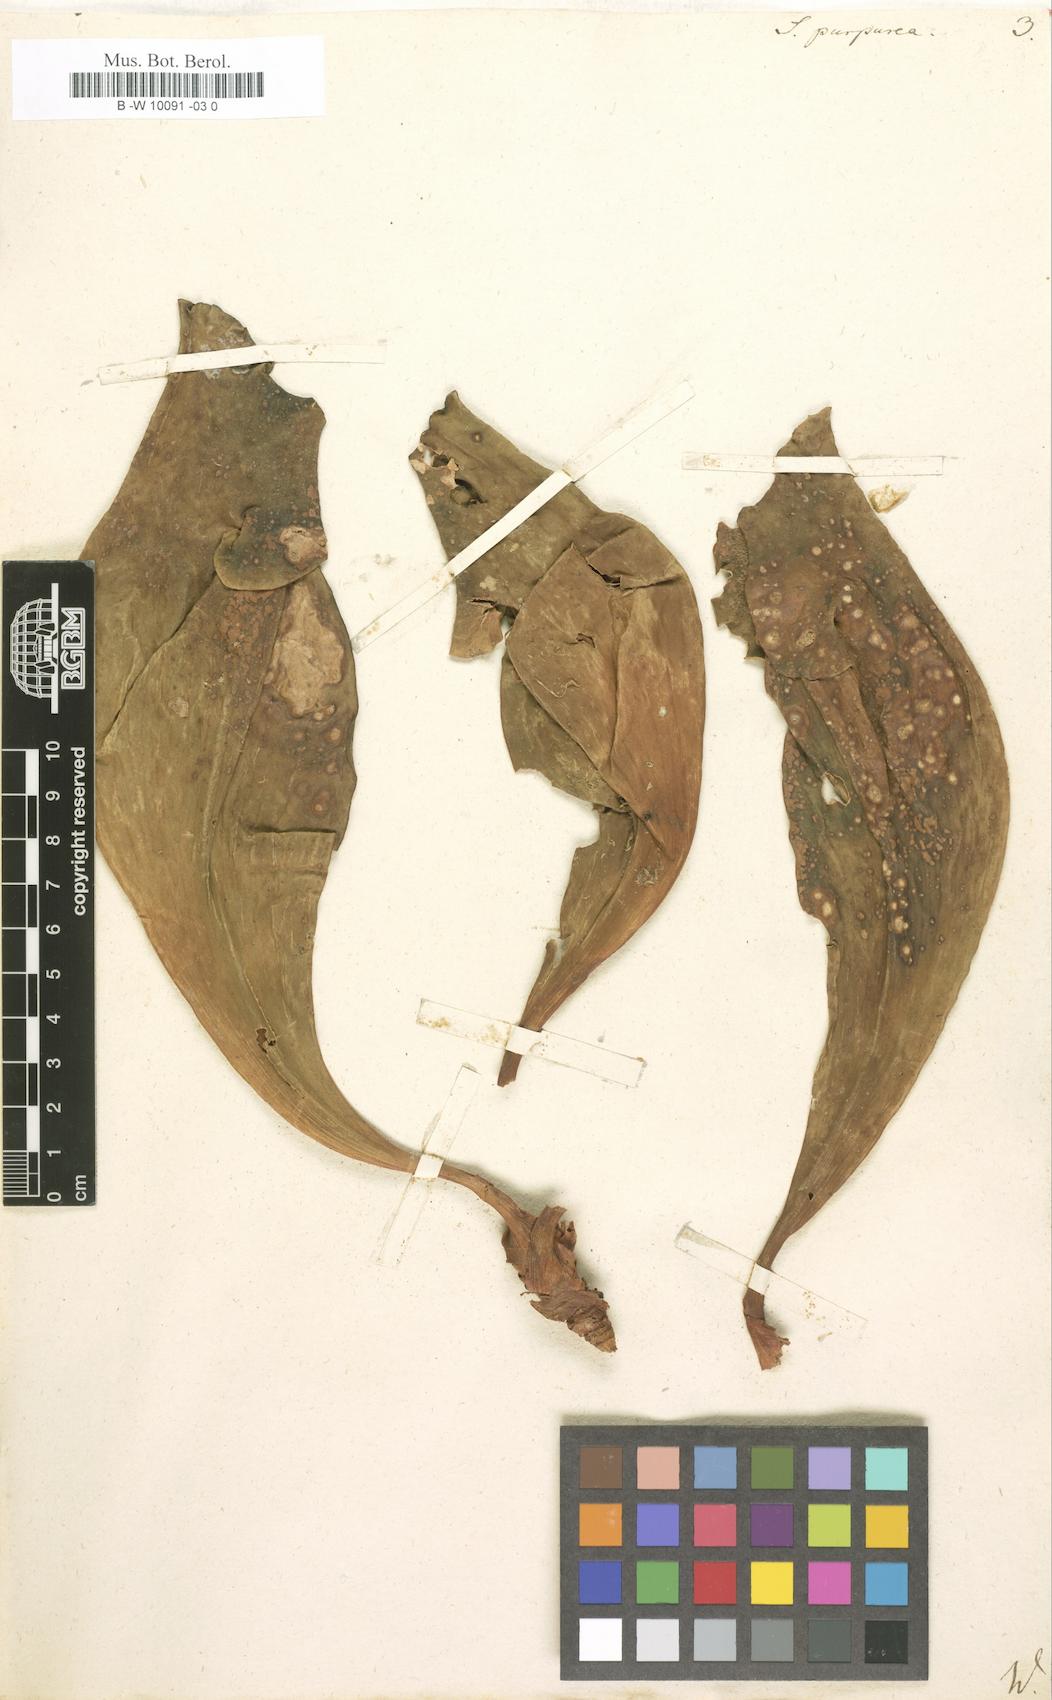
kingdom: Plantae
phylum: Tracheophyta
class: Magnoliopsida
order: Ericales
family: Sarraceniaceae
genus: Sarracenia
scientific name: Sarracenia purpurea
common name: Pitcherplant
